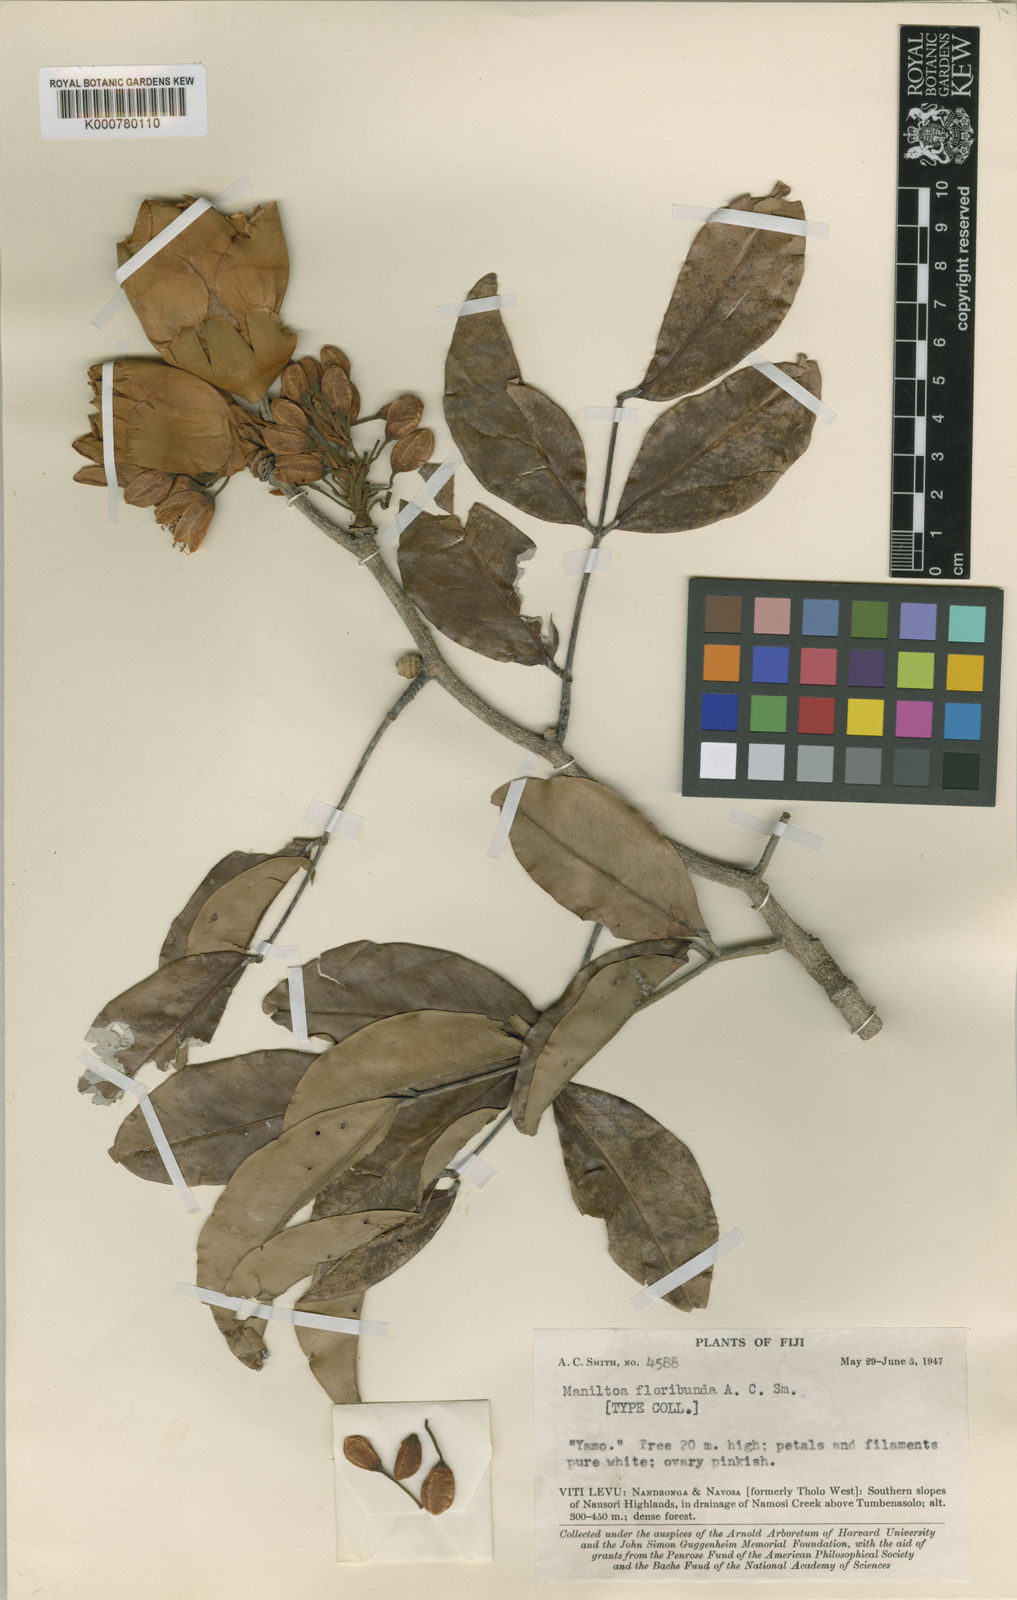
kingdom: Plantae
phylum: Tracheophyta
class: Magnoliopsida
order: Fabales
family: Fabaceae
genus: Cynometra
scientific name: Cynometra vitiensis
